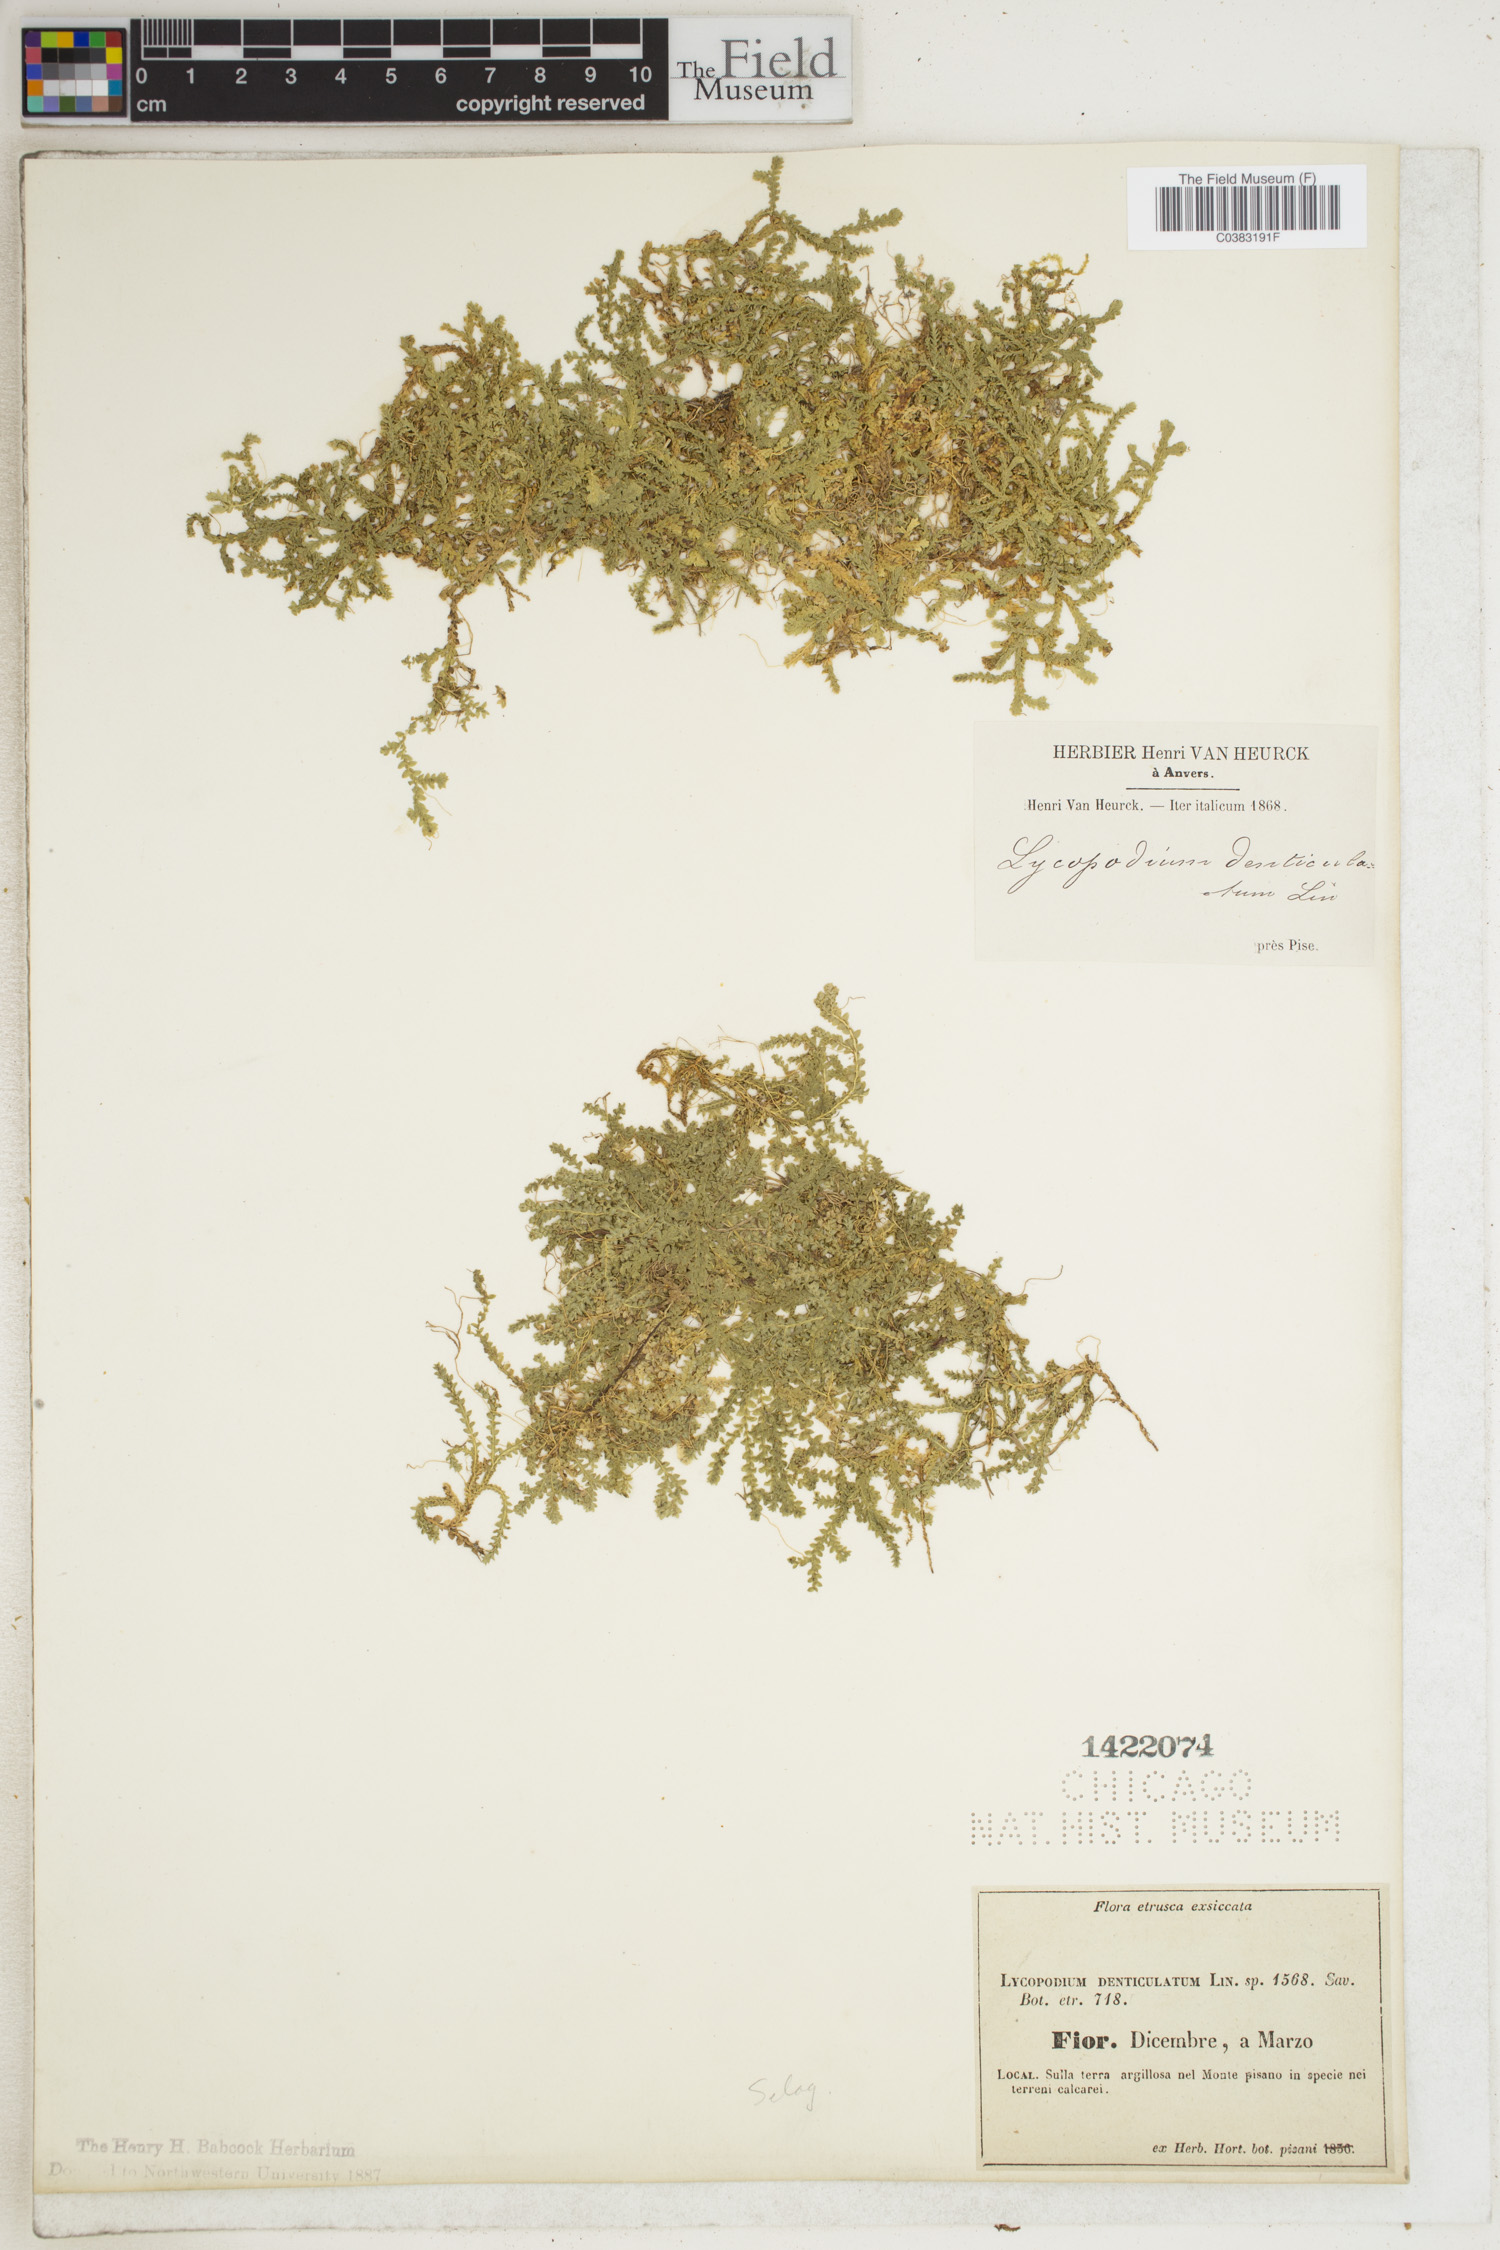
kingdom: Plantae
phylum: Tracheophyta
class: Lycopodiopsida
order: Selaginellales
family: Selaginellaceae
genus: Selaginella
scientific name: Selaginella denticulata
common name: Toothed-leaved clubmoss
